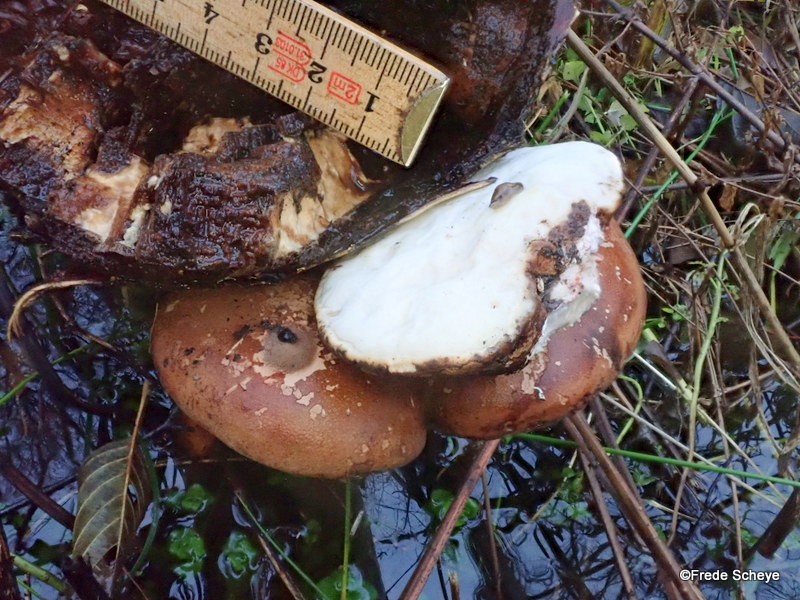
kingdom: Fungi
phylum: Basidiomycota
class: Agaricomycetes
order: Polyporales
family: Fomitopsidaceae
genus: Fomitopsis
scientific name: Fomitopsis betulina
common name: birkeporesvamp
